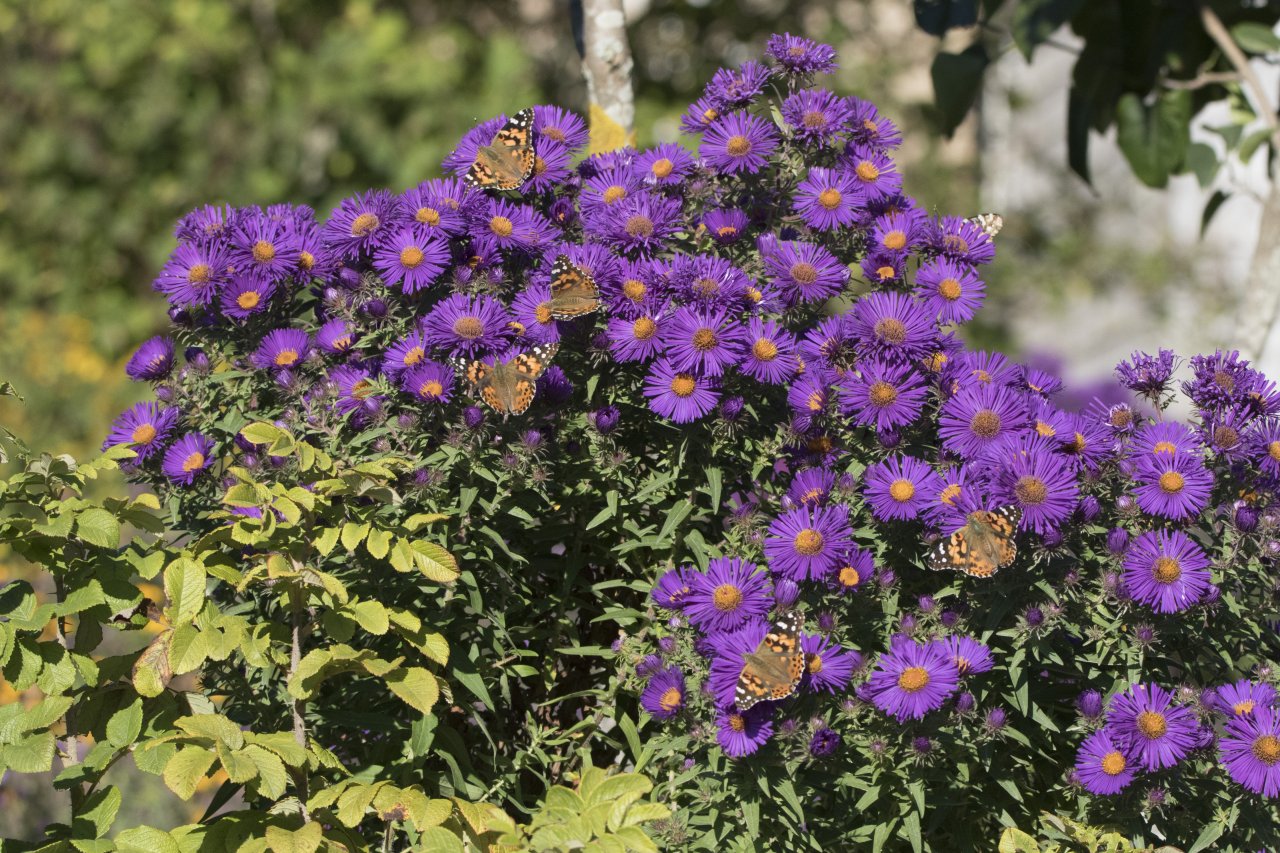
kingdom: Animalia
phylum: Arthropoda
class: Insecta
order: Lepidoptera
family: Nymphalidae
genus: Vanessa
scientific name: Vanessa cardui
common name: Painted Lady
